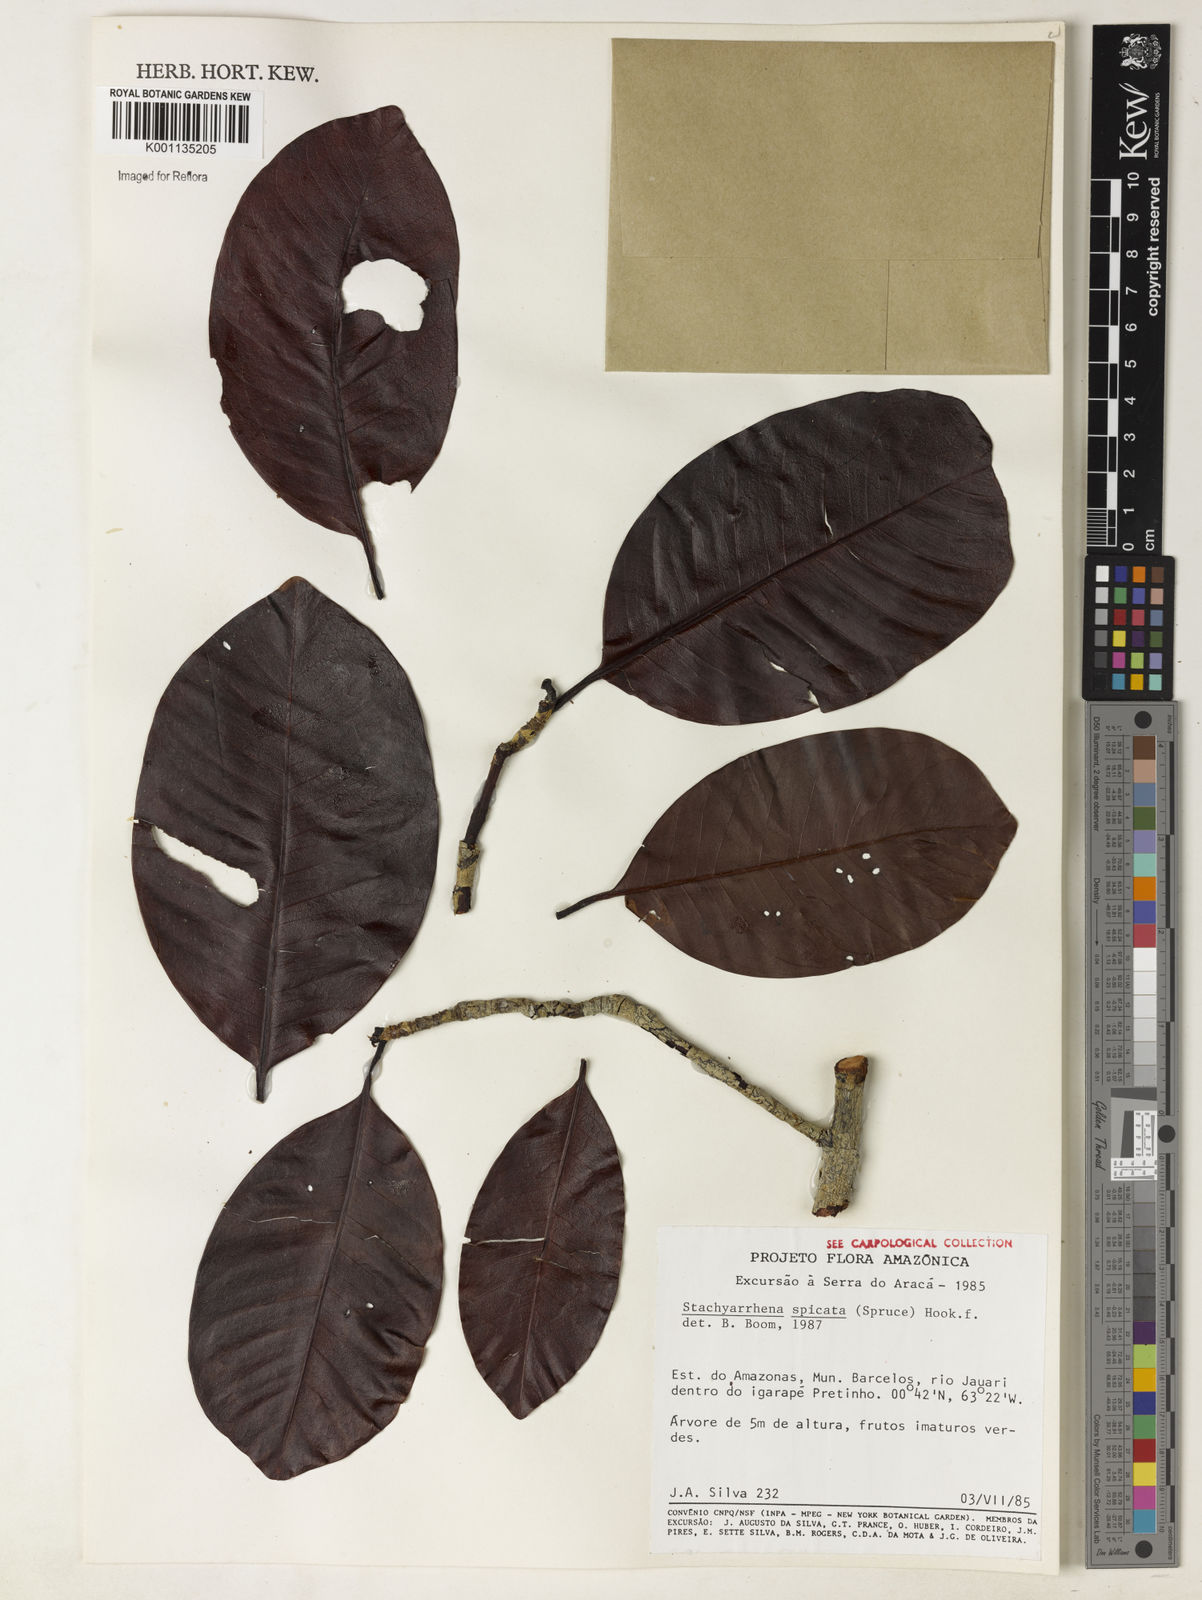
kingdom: Plantae
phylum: Tracheophyta
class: Magnoliopsida
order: Gentianales
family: Rubiaceae
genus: Stachyarrhena
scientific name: Stachyarrhena spicata
